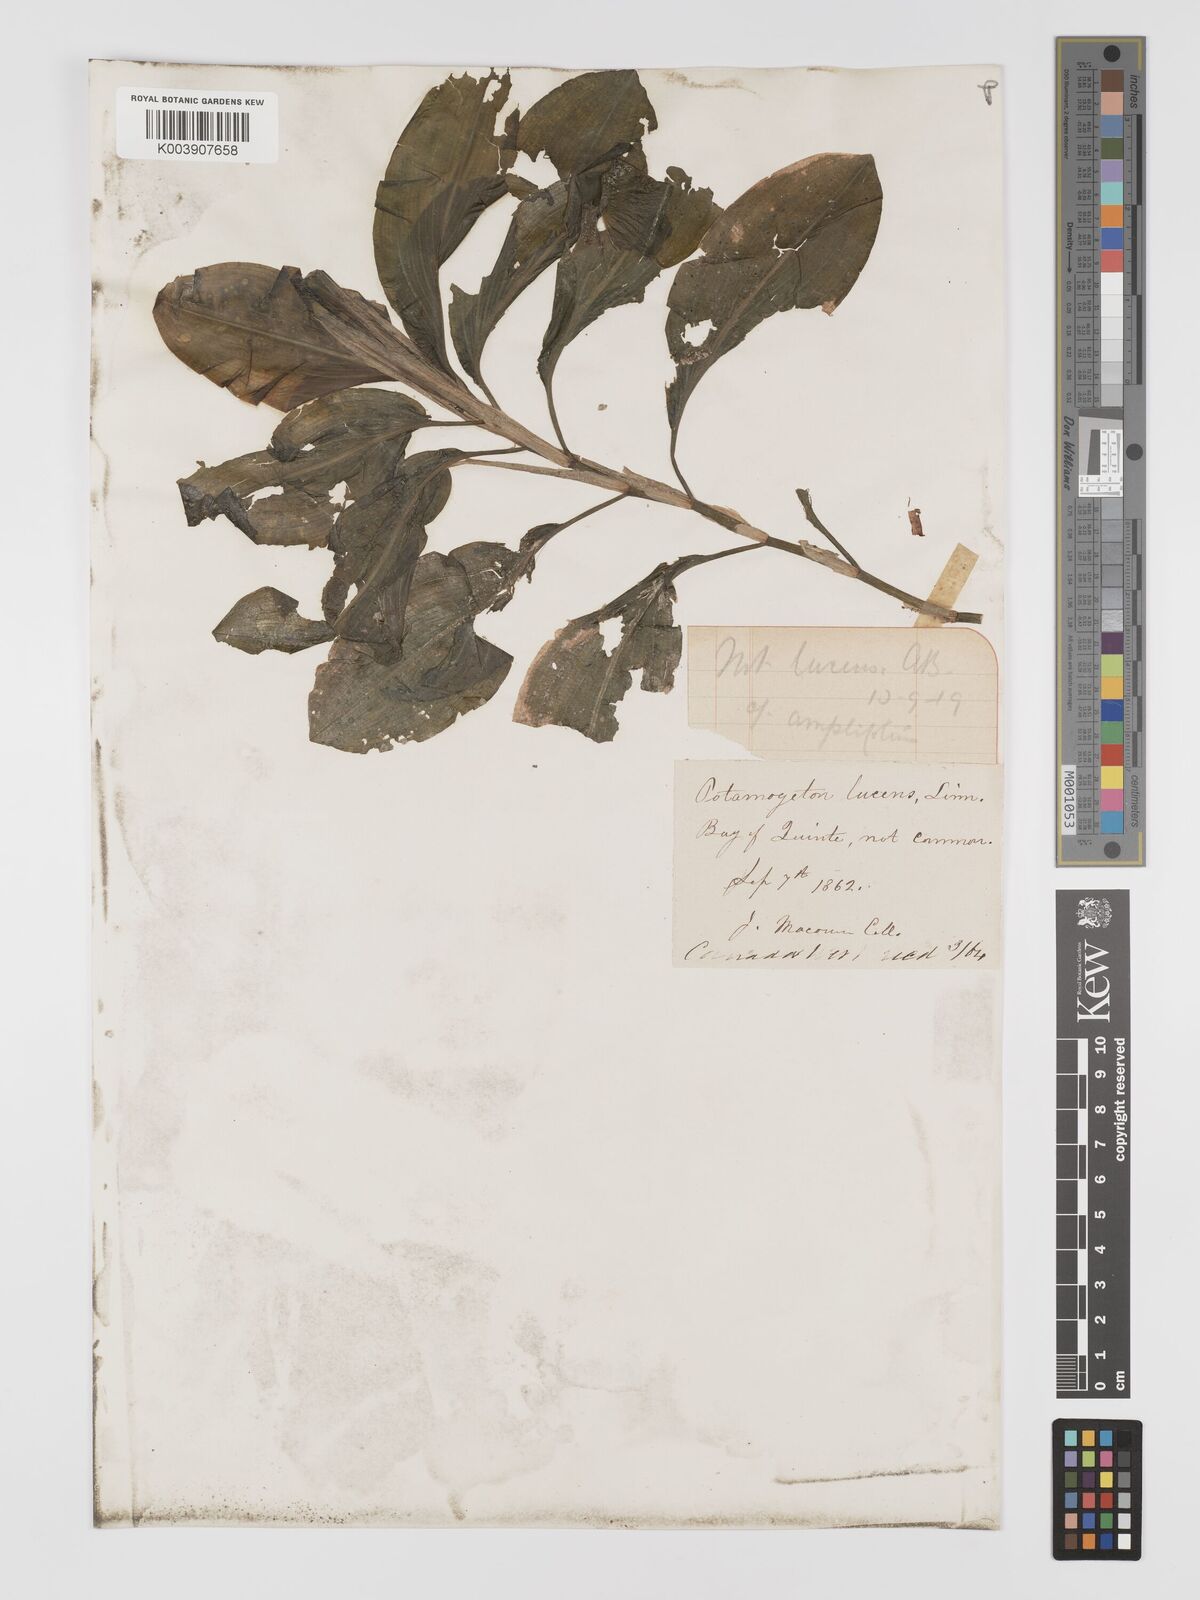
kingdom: Plantae
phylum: Tracheophyta
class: Liliopsida
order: Alismatales
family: Potamogetonaceae
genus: Potamogeton
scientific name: Potamogeton amplifolius
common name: Broad-leaved pondweed
